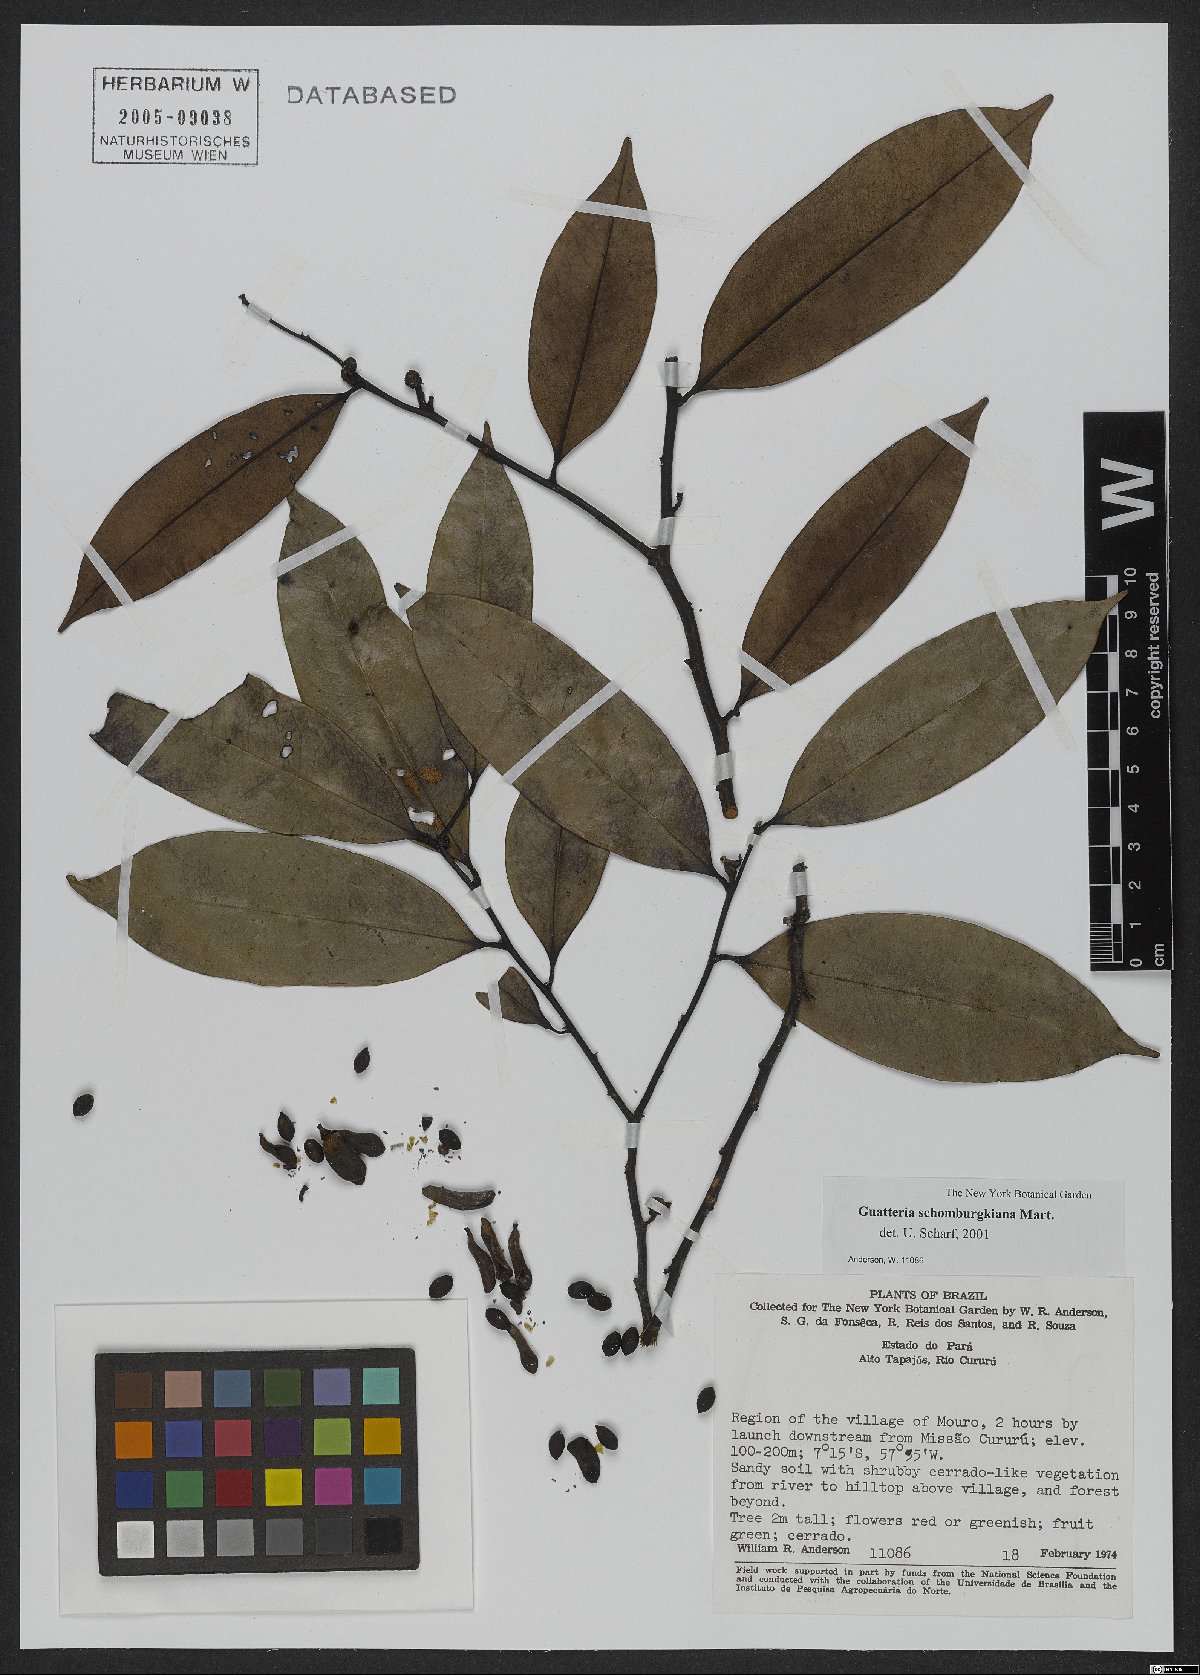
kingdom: Plantae
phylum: Tracheophyta
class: Magnoliopsida
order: Magnoliales
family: Annonaceae
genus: Guatteria
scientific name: Guatteria schomburgkiana
